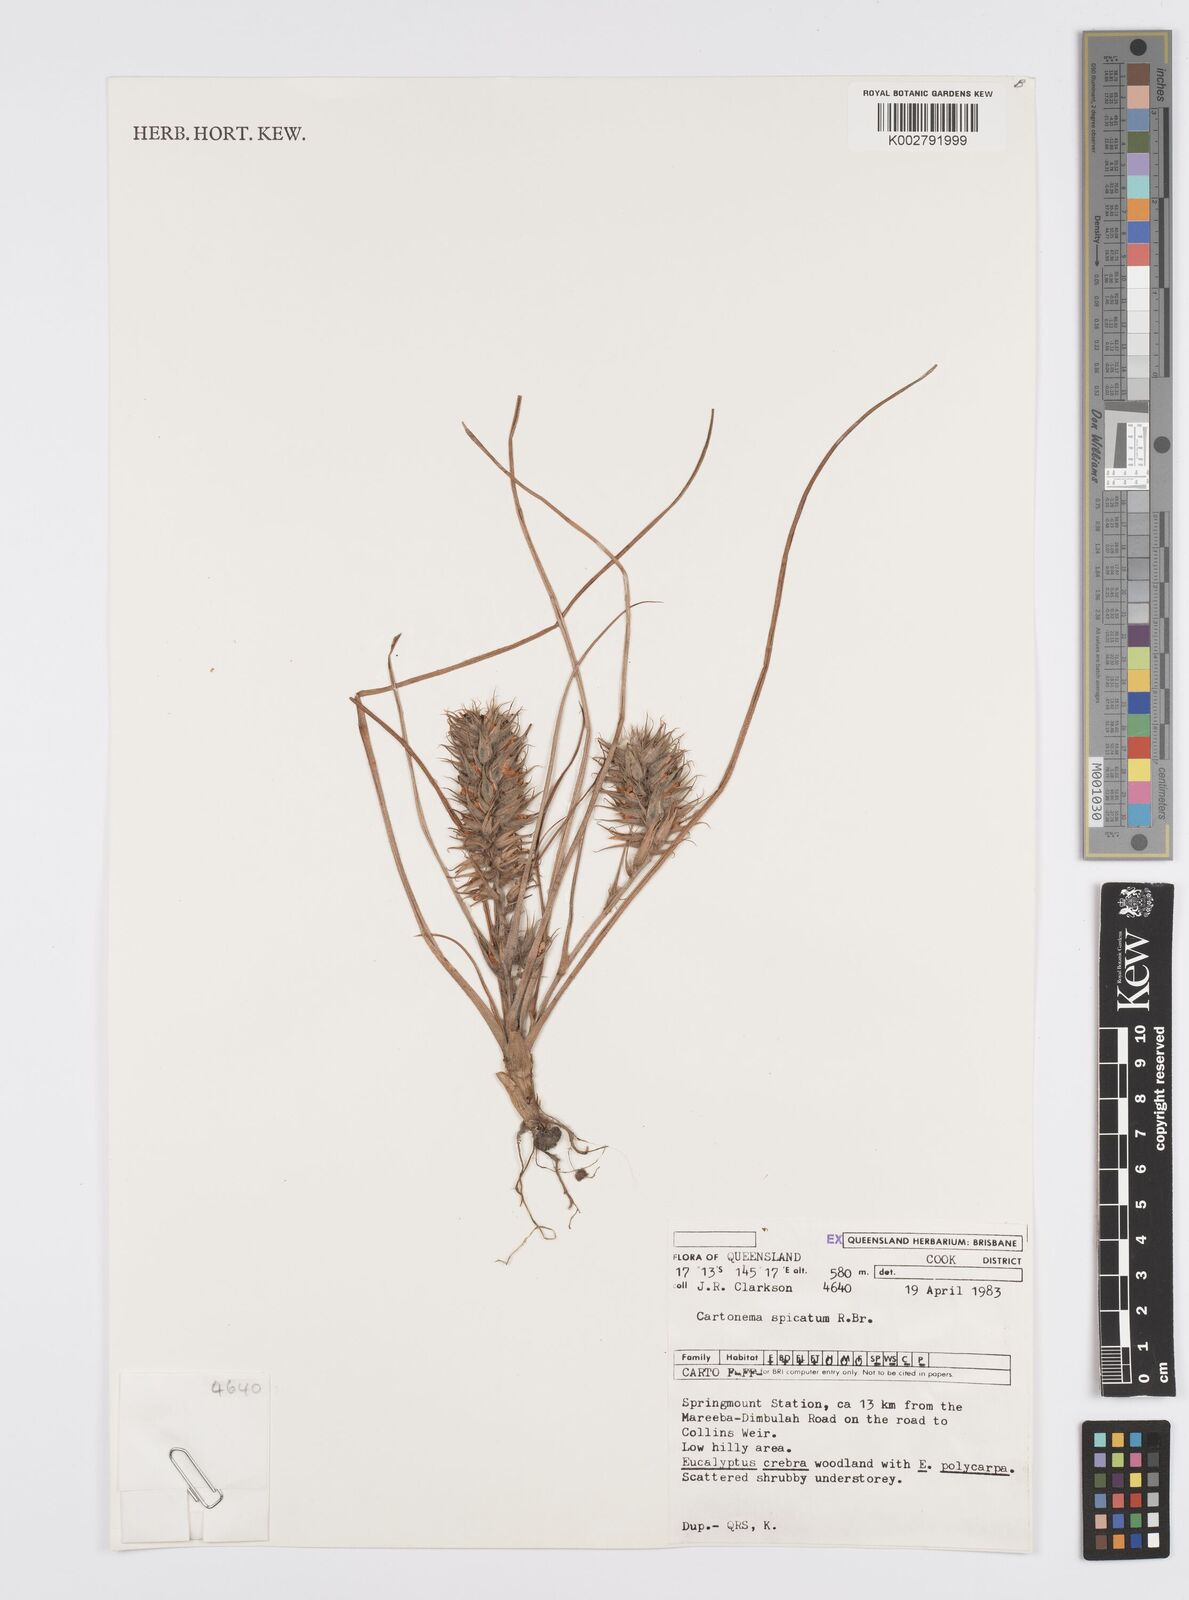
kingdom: Plantae
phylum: Tracheophyta
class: Liliopsida
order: Commelinales
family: Commelinaceae
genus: Cartonema
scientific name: Cartonema spicatum
